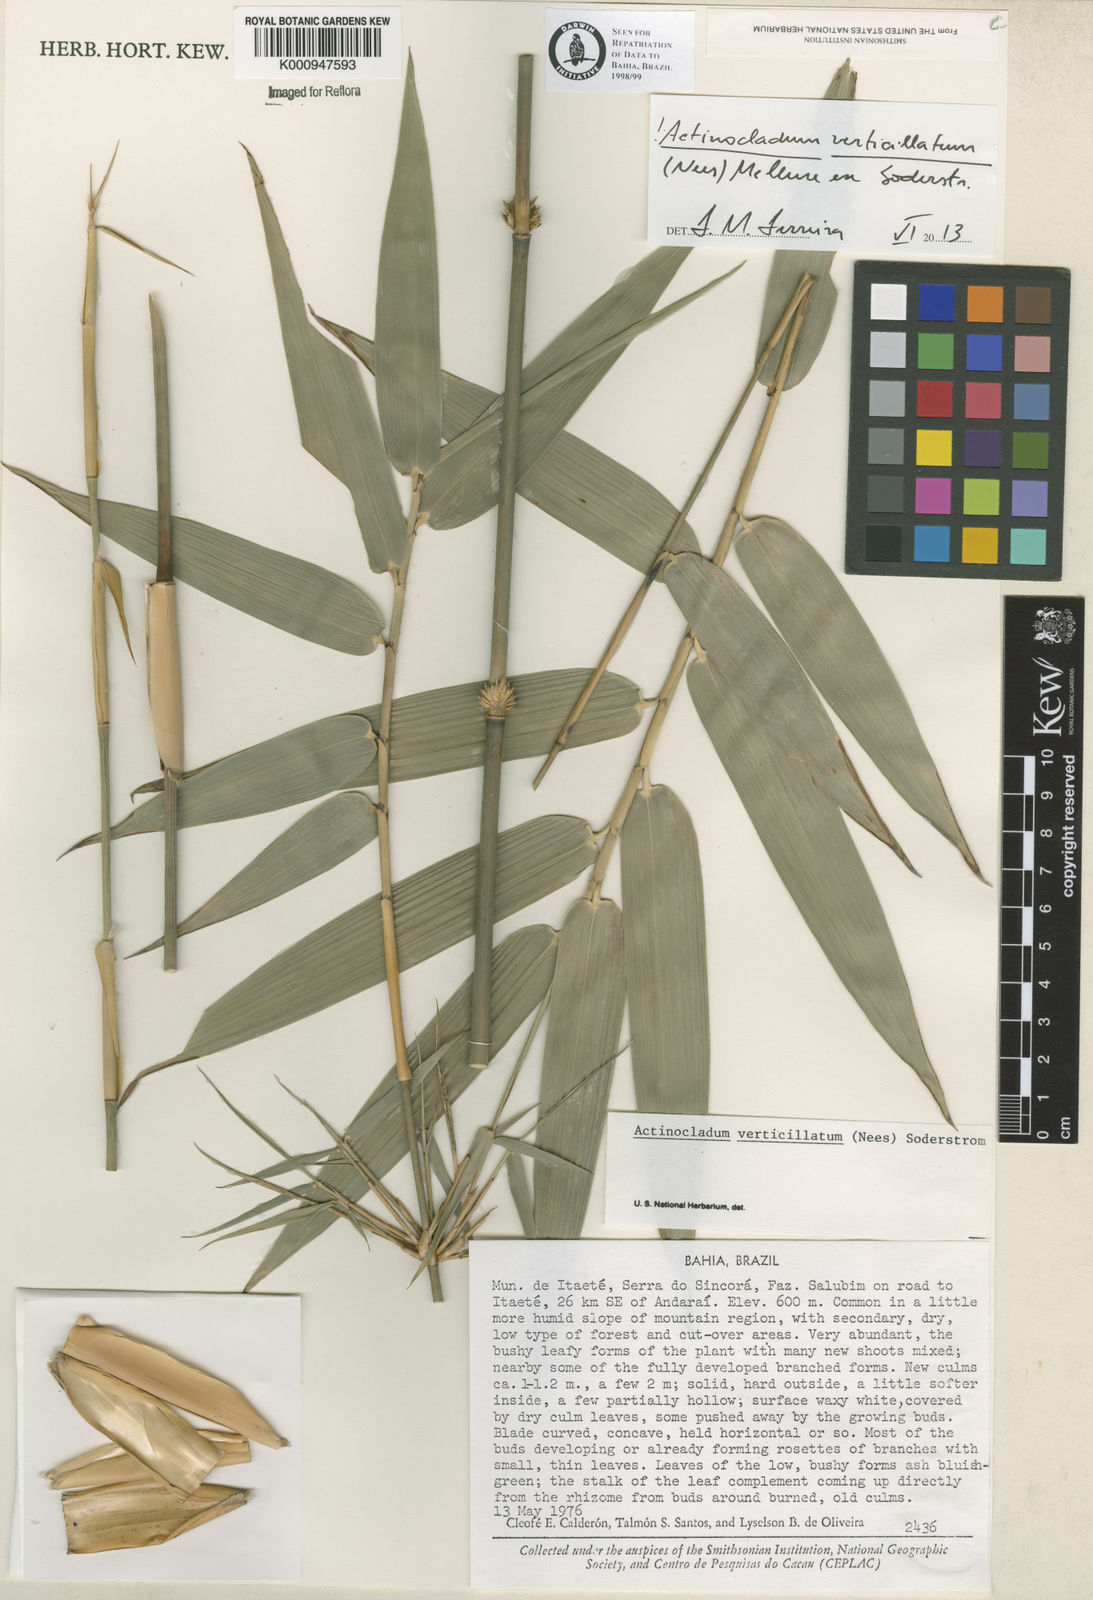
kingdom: Plantae
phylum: Tracheophyta
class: Liliopsida
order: Poales
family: Poaceae
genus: Actinocladum
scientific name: Actinocladum verticillatum
